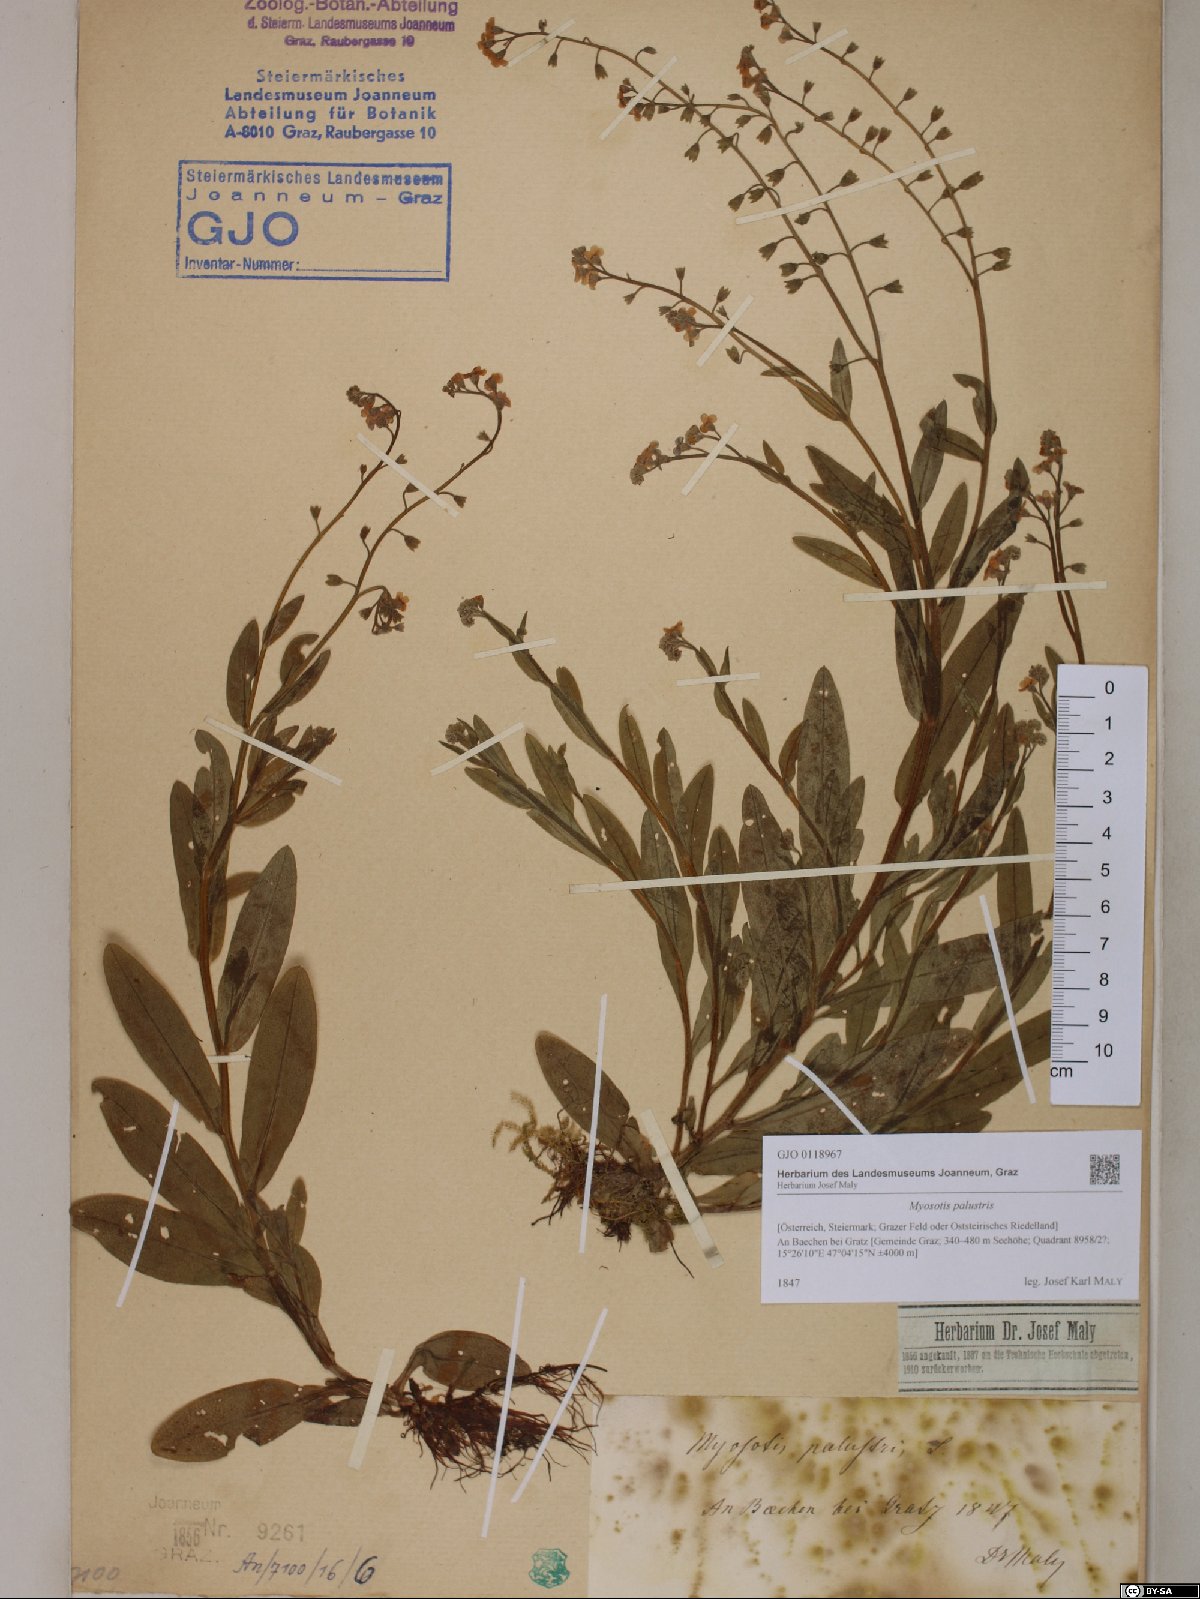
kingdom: Plantae
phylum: Tracheophyta
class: Magnoliopsida
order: Boraginales
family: Boraginaceae
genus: Myosotis
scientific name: Myosotis scorpioides
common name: Water forget-me-not
